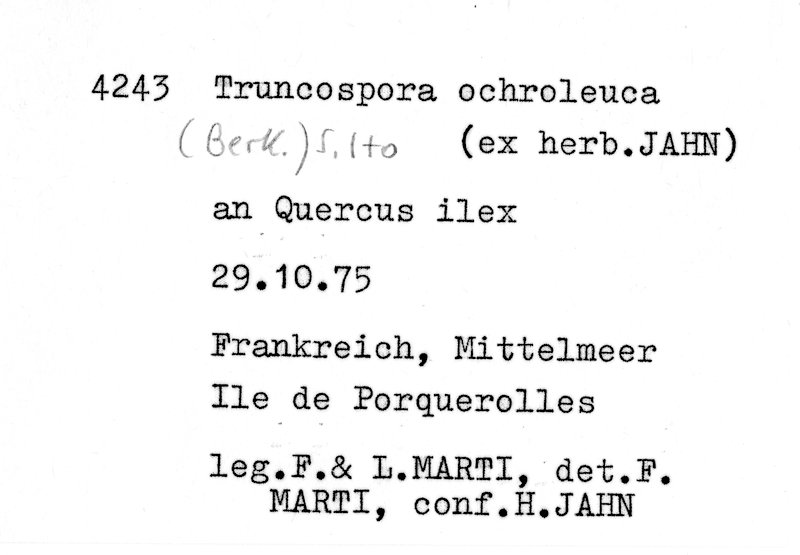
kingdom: Plantae
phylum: Tracheophyta
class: Magnoliopsida
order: Fagales
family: Fagaceae
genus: Quercus
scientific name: Quercus ilex
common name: Evergreen oak
